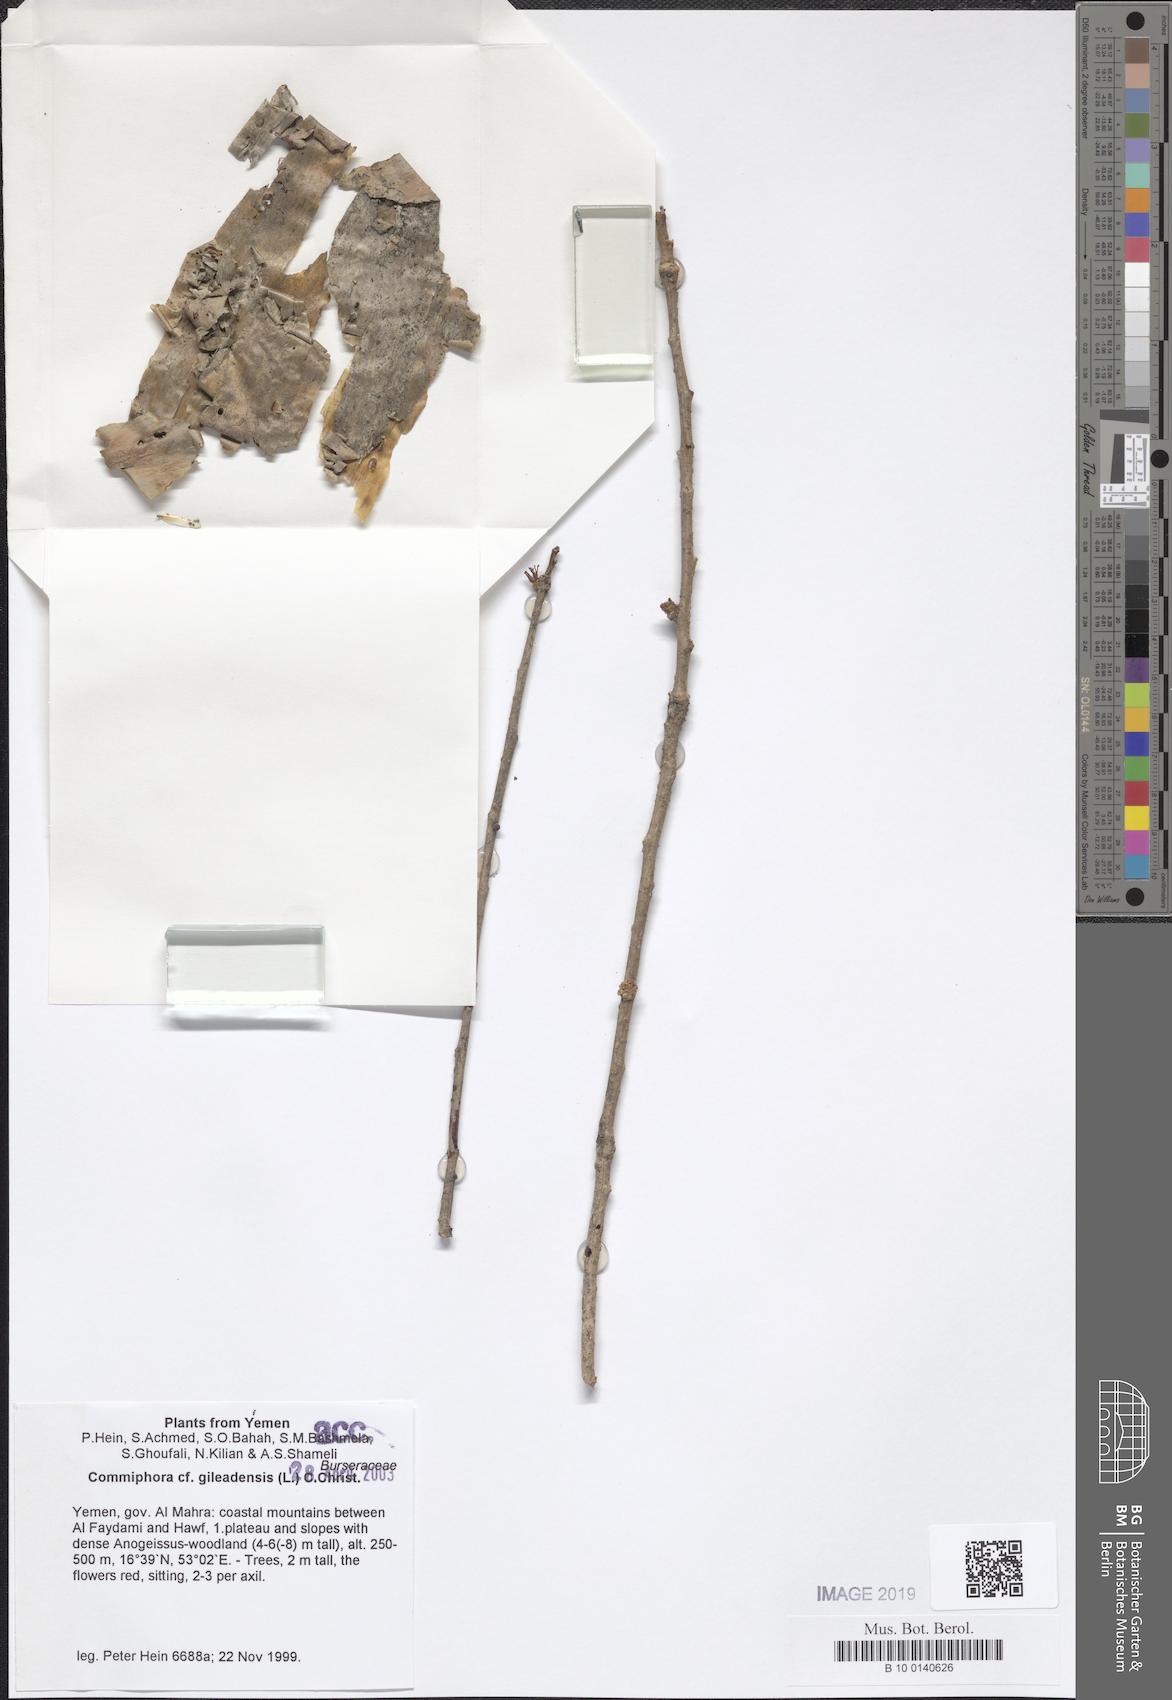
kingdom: Plantae
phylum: Tracheophyta
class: Magnoliopsida
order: Sapindales
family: Burseraceae
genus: Commiphora
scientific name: Commiphora gileadensis
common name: Balm-of-gilead
